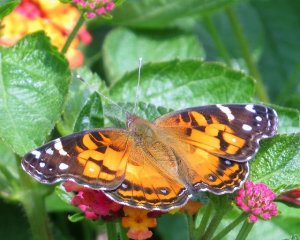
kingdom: Animalia
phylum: Arthropoda
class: Insecta
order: Lepidoptera
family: Nymphalidae
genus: Vanessa
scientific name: Vanessa virginiensis
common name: American Lady
